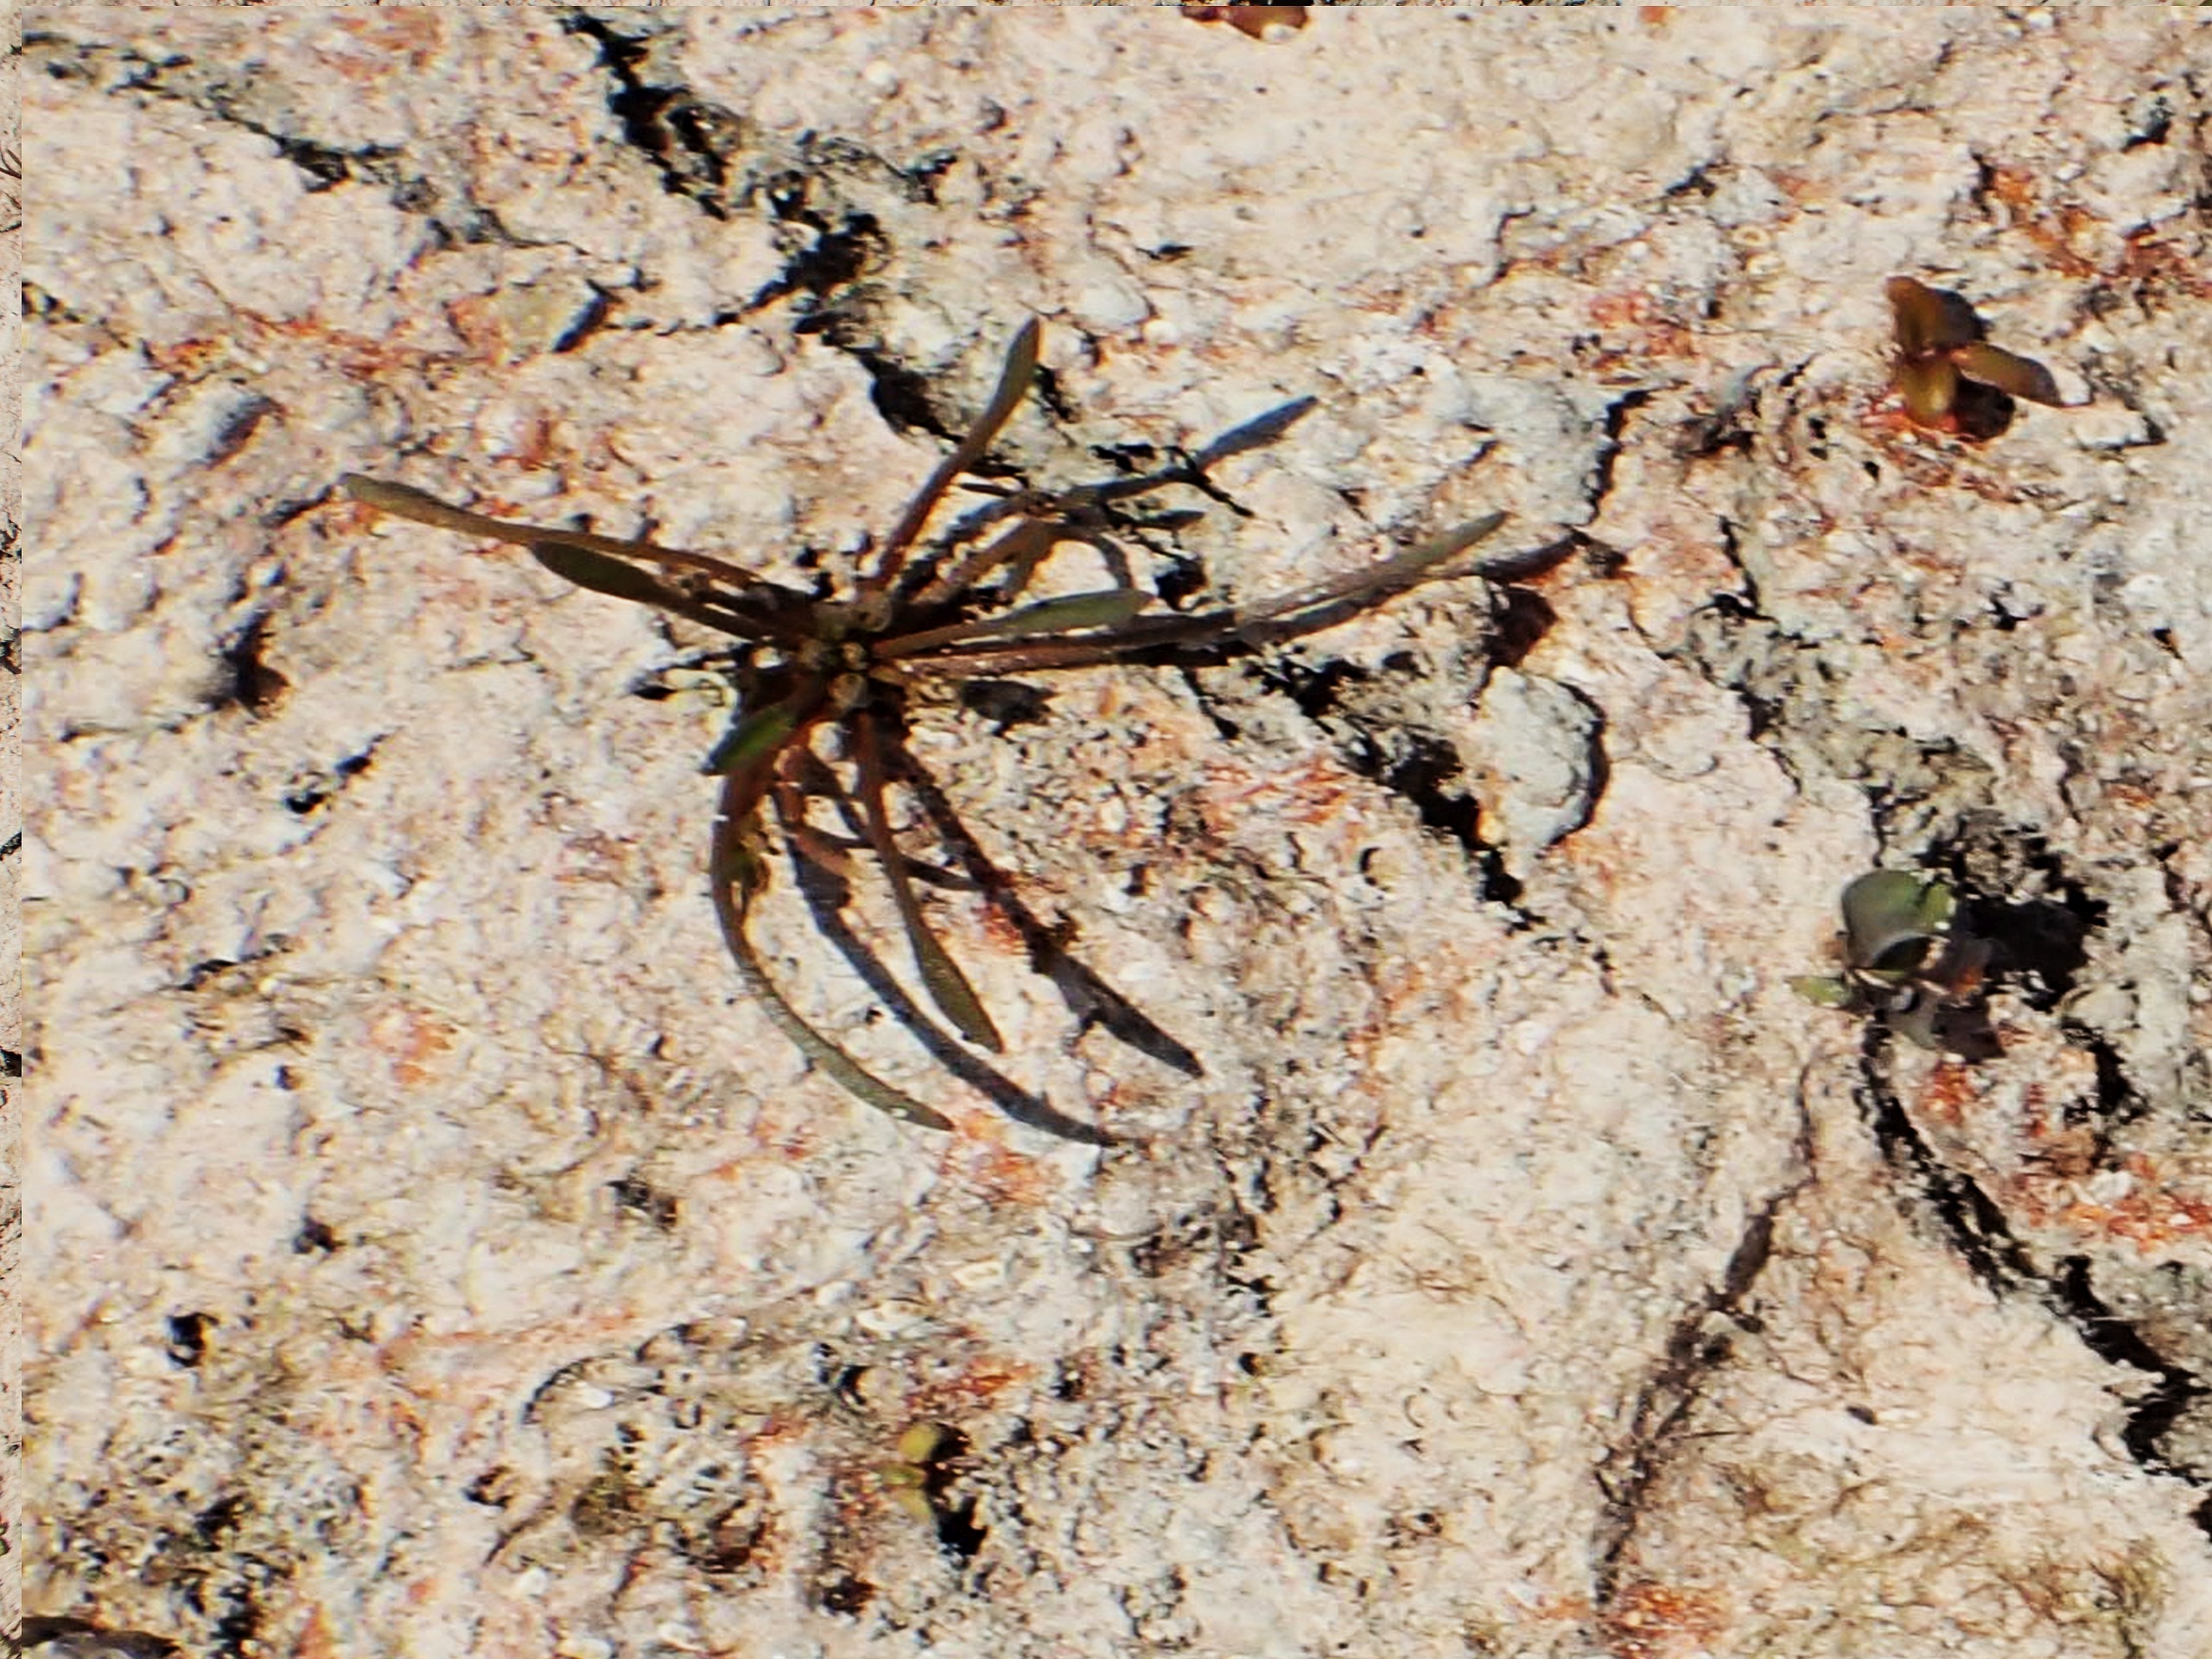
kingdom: Plantae
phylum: Tracheophyta
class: Magnoliopsida
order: Lamiales
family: Scrophulariaceae
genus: Limosella
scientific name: Limosella aquatica
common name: Dyndurt
